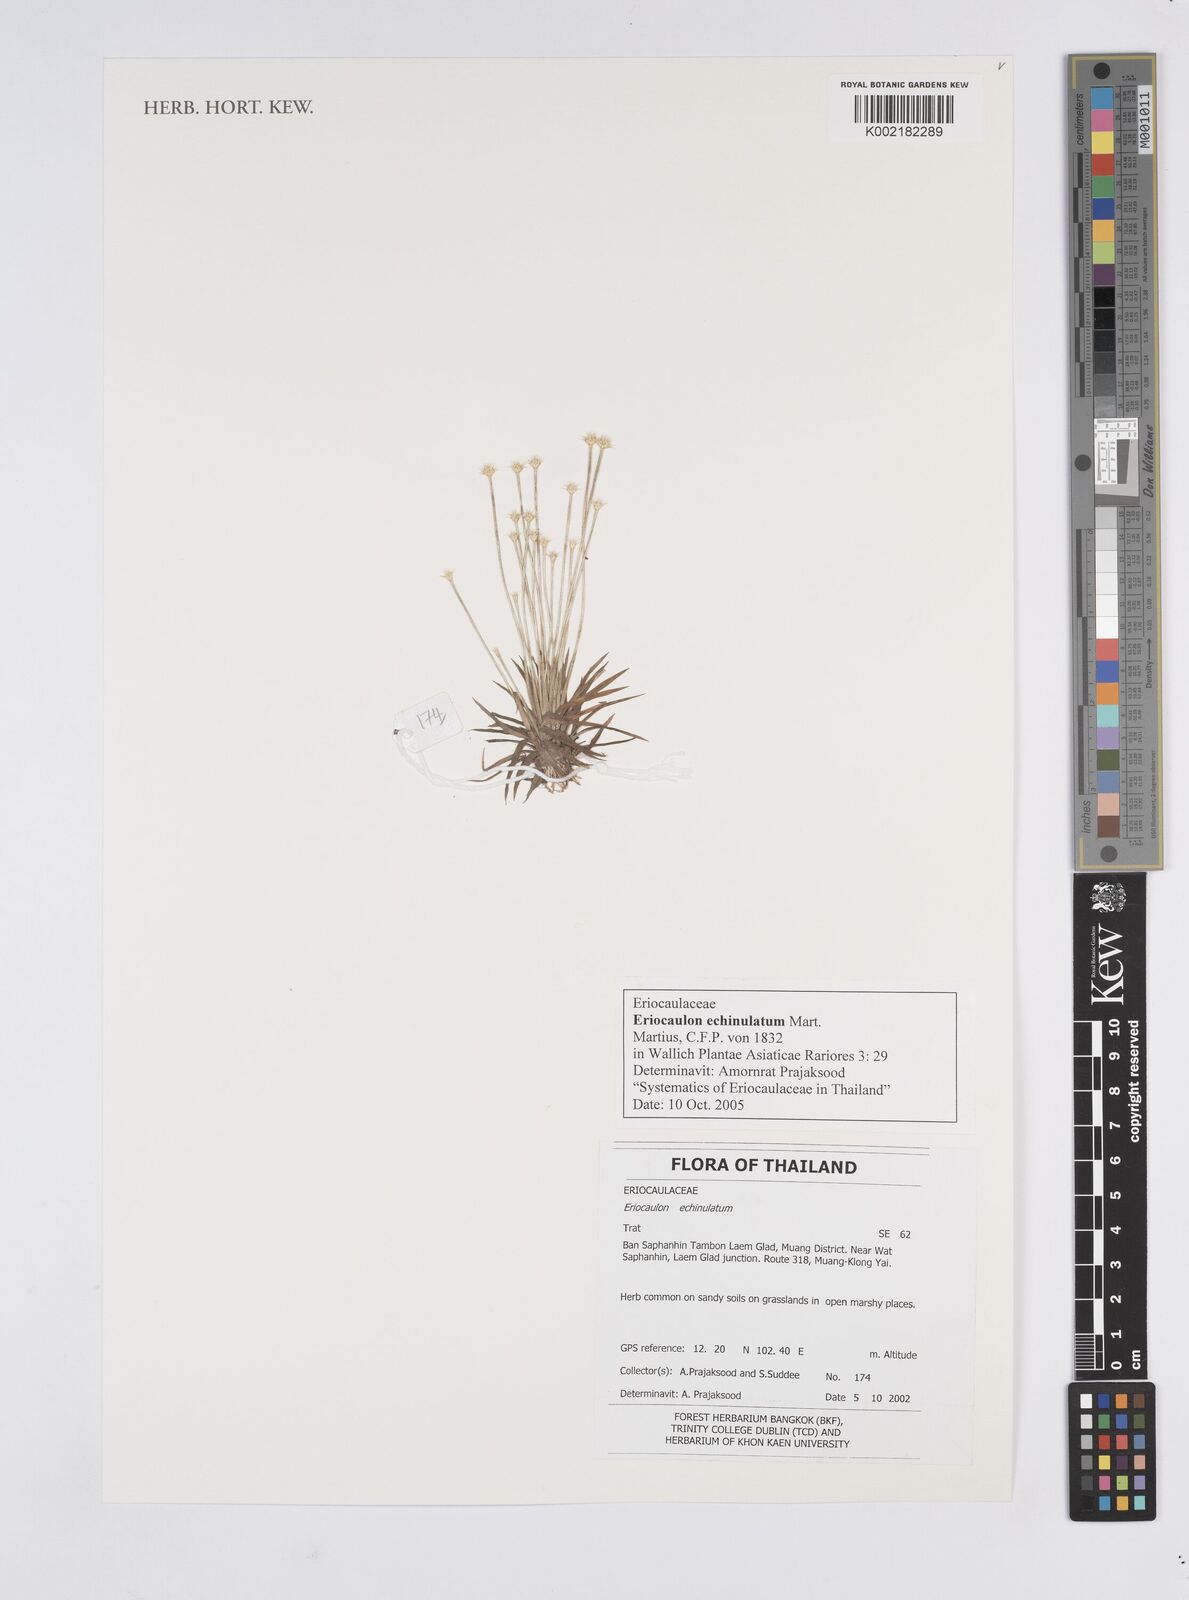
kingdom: Plantae
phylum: Tracheophyta
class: Liliopsida
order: Poales
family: Eriocaulaceae
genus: Eriocaulon
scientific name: Eriocaulon echinulatum
